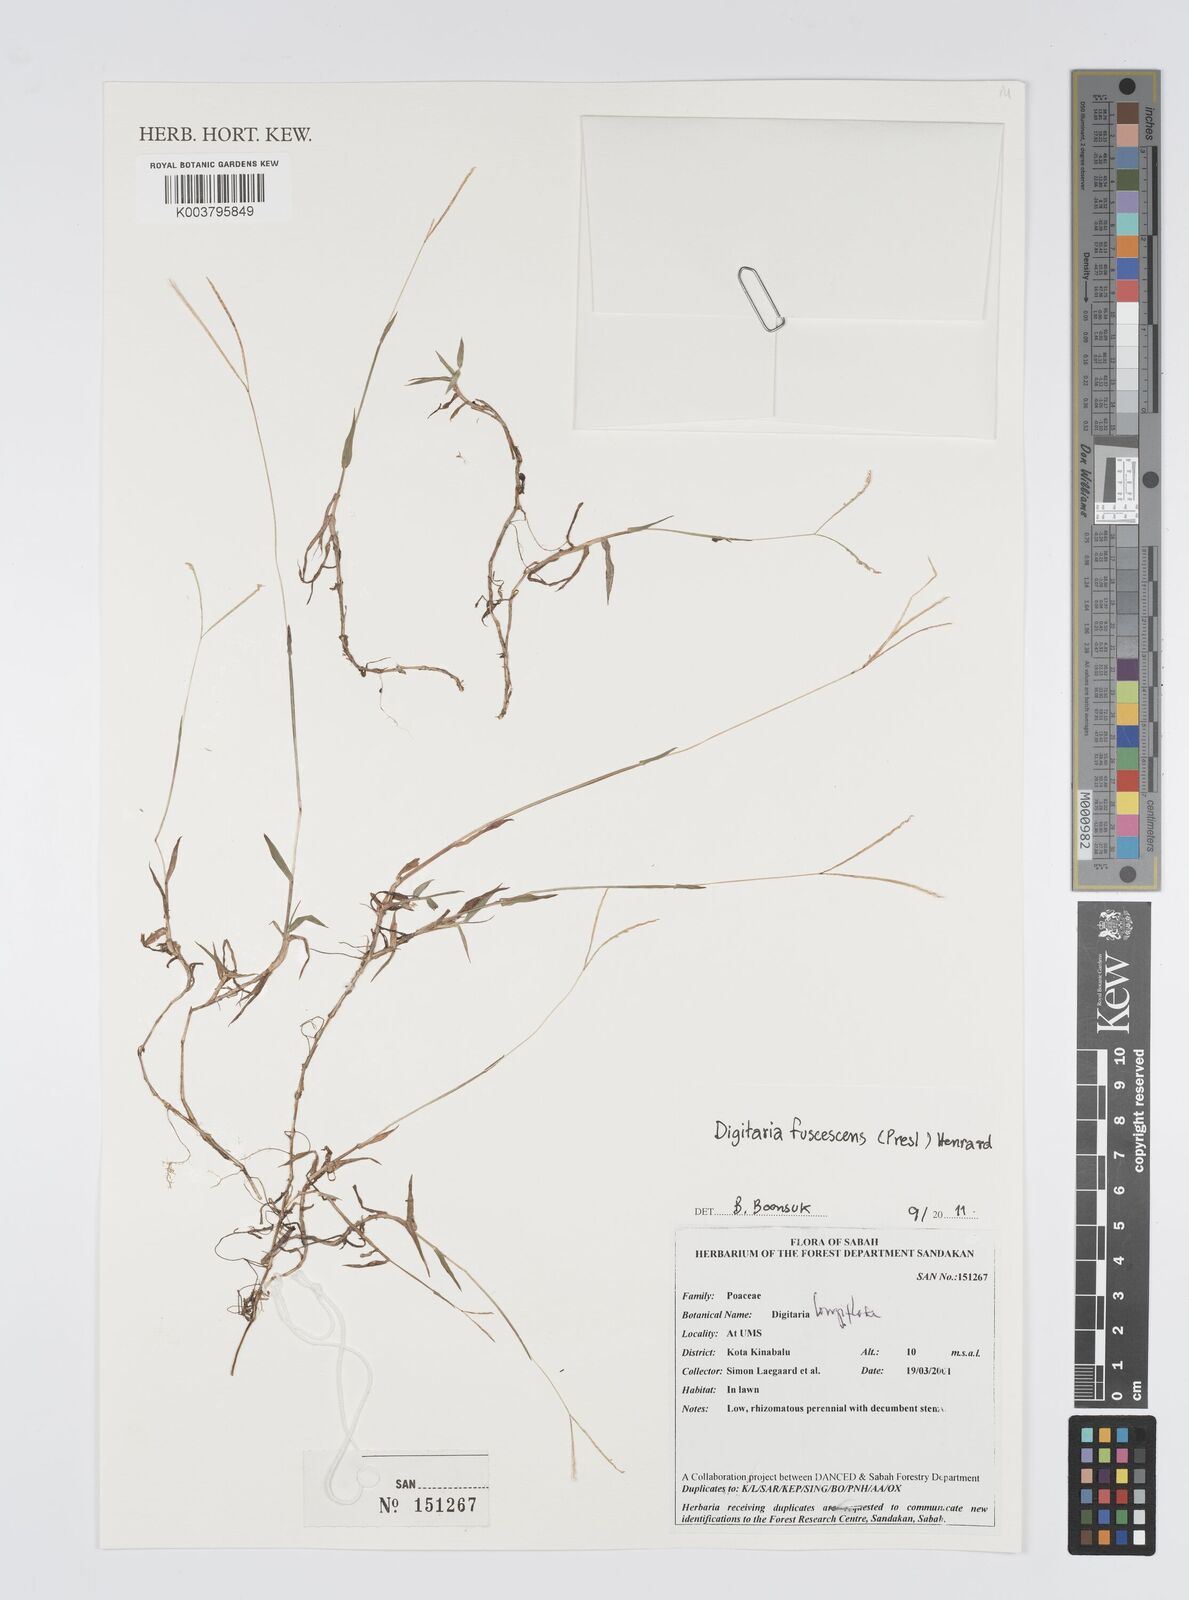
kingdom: Plantae
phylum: Tracheophyta
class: Liliopsida
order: Poales
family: Poaceae
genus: Digitaria
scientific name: Digitaria fuscescens
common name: Yellow crabgrass
